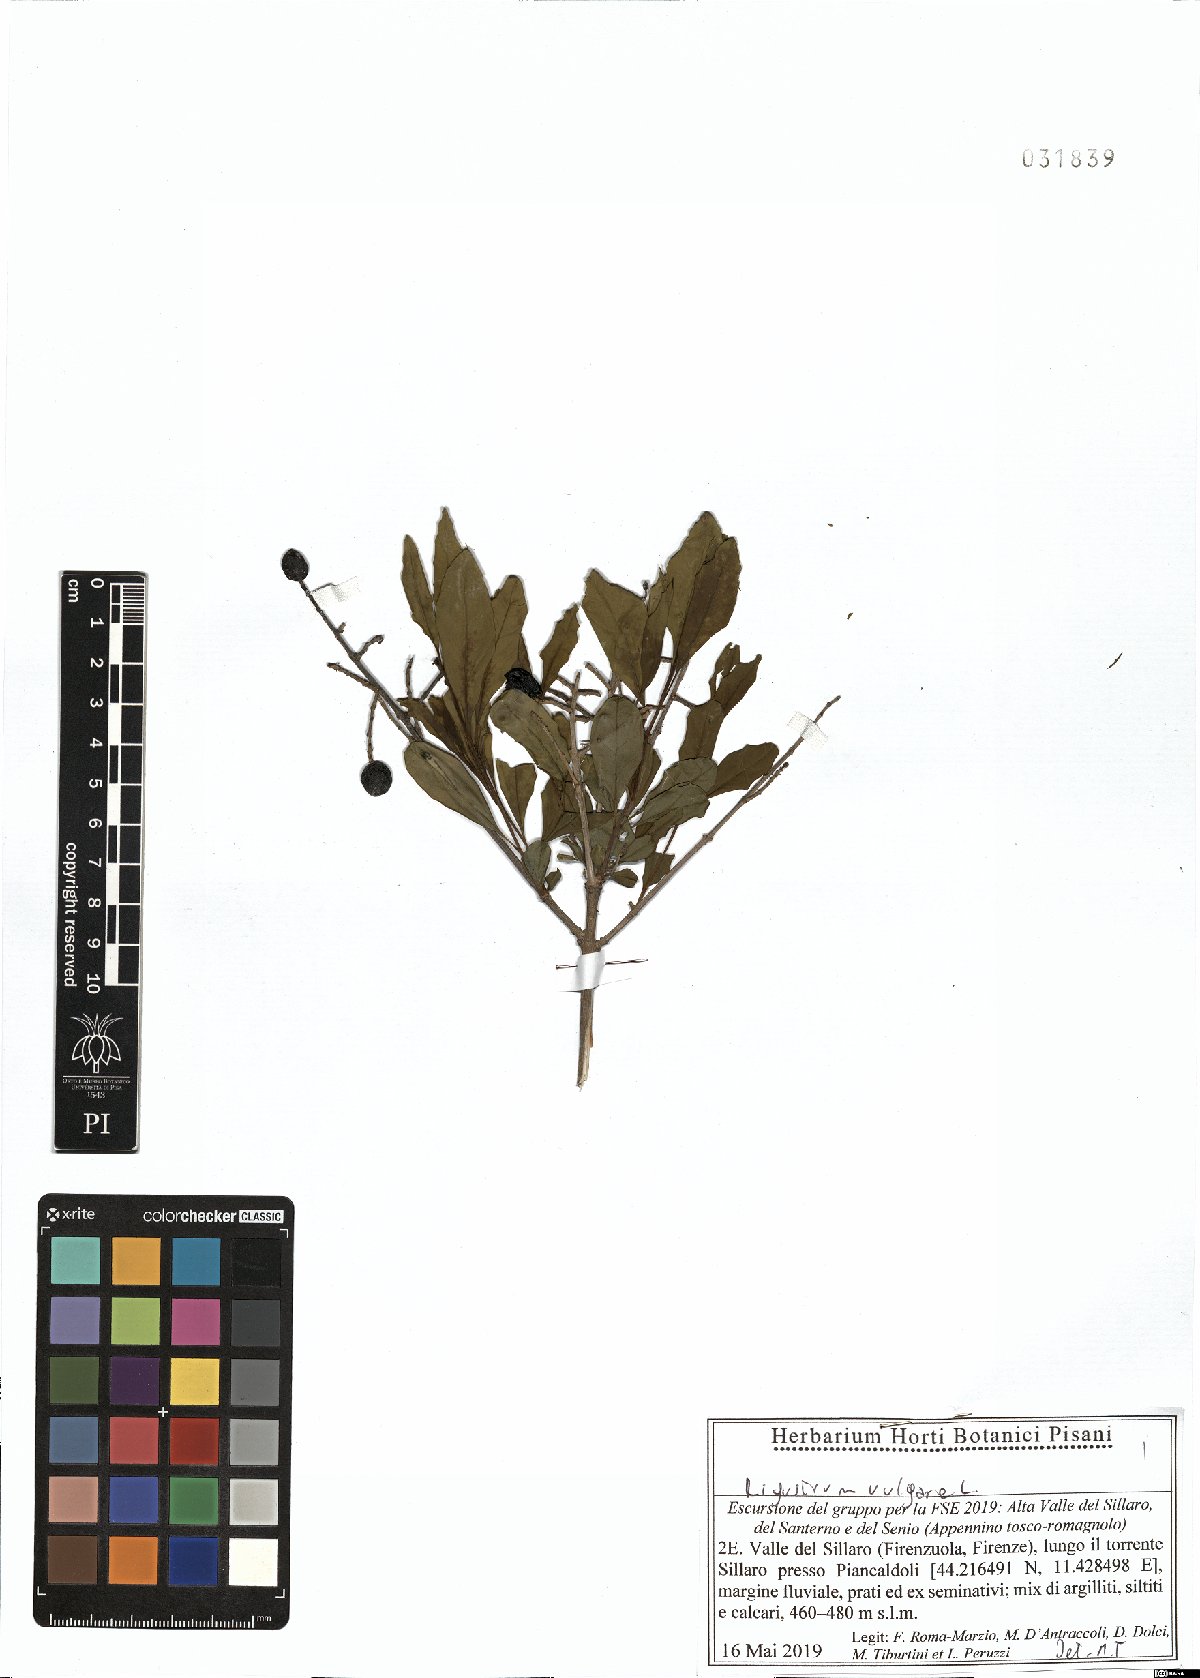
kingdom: Plantae
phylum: Tracheophyta
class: Magnoliopsida
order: Lamiales
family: Oleaceae
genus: Ligustrum
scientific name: Ligustrum vulgare
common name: Wild privet
